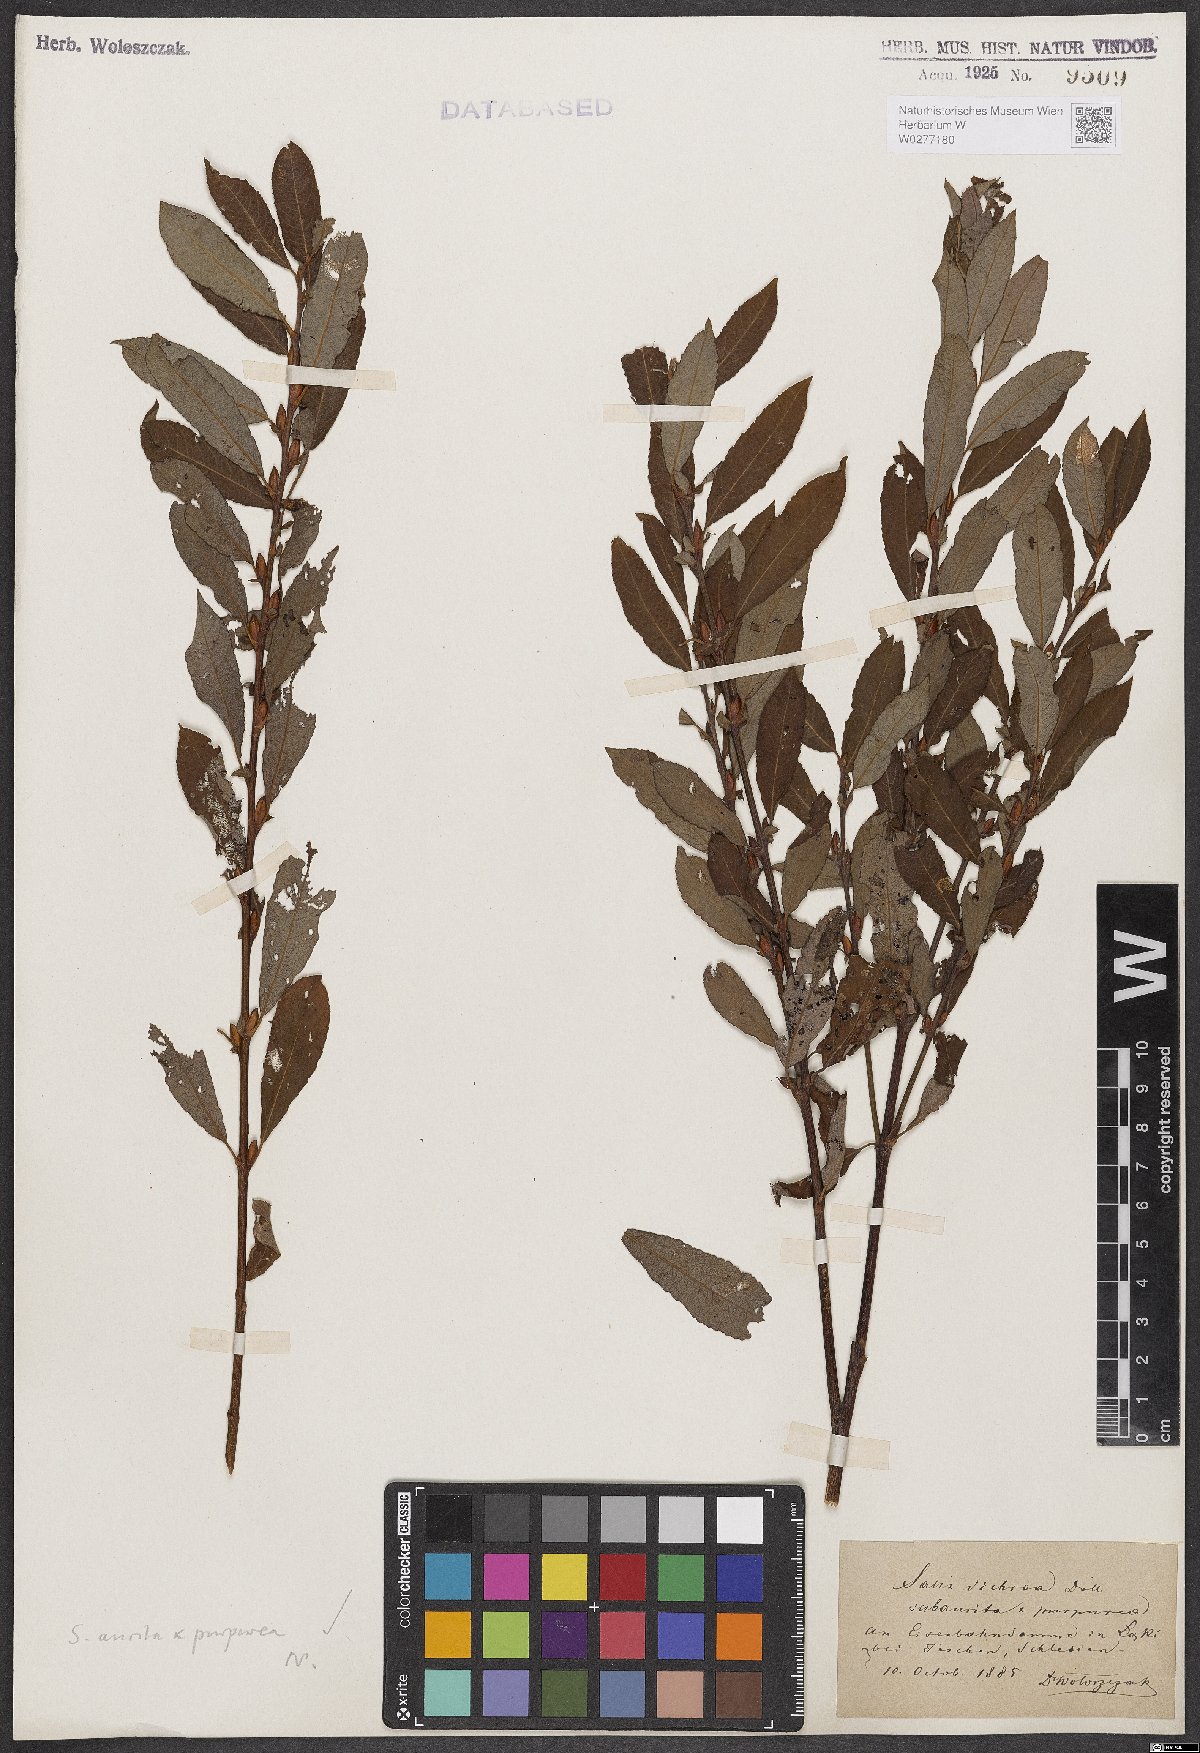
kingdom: Plantae
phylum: Tracheophyta
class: Magnoliopsida
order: Malpighiales
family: Salicaceae
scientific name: Salicaceae
